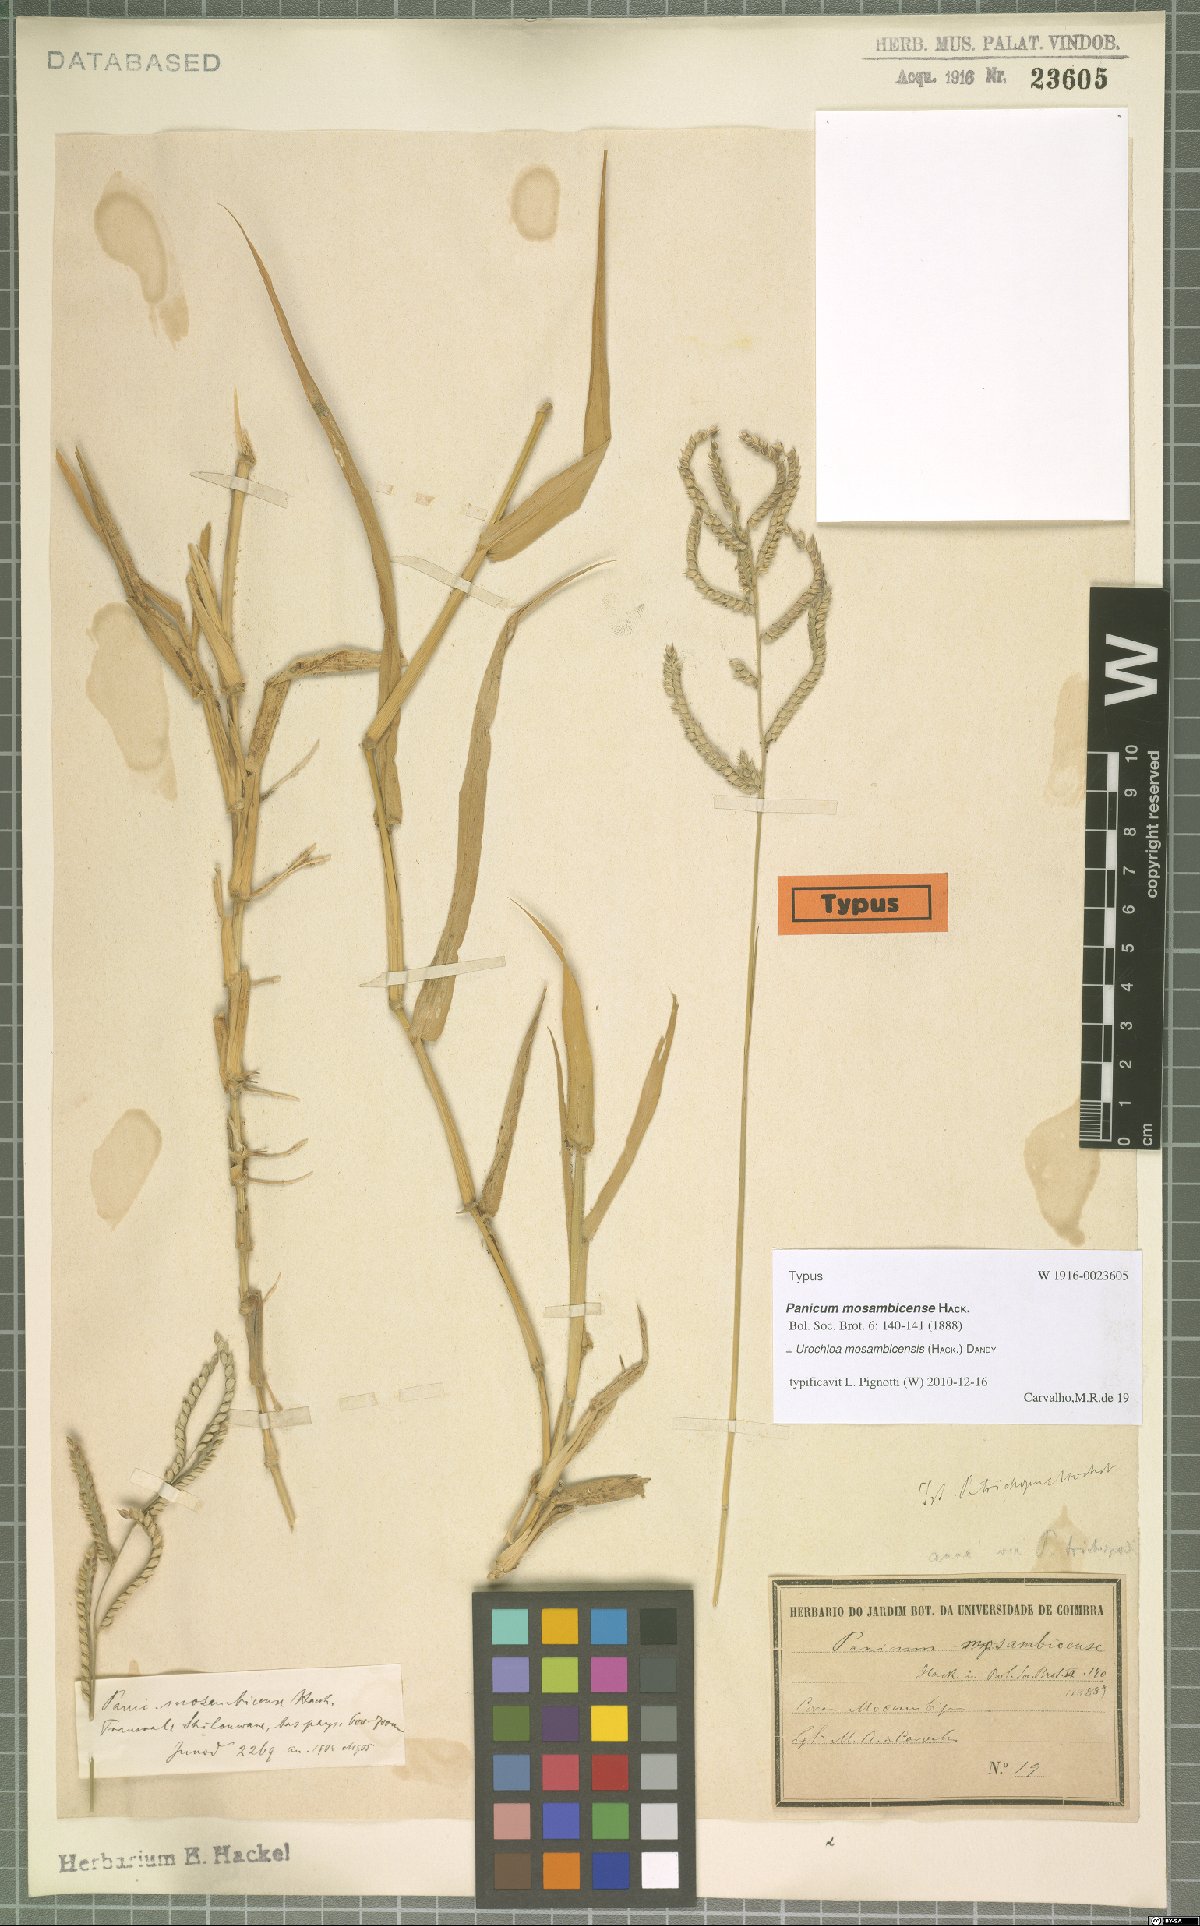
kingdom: Plantae
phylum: Tracheophyta
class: Liliopsida
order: Poales
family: Poaceae
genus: Urochloa
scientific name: Urochloa trichopus
